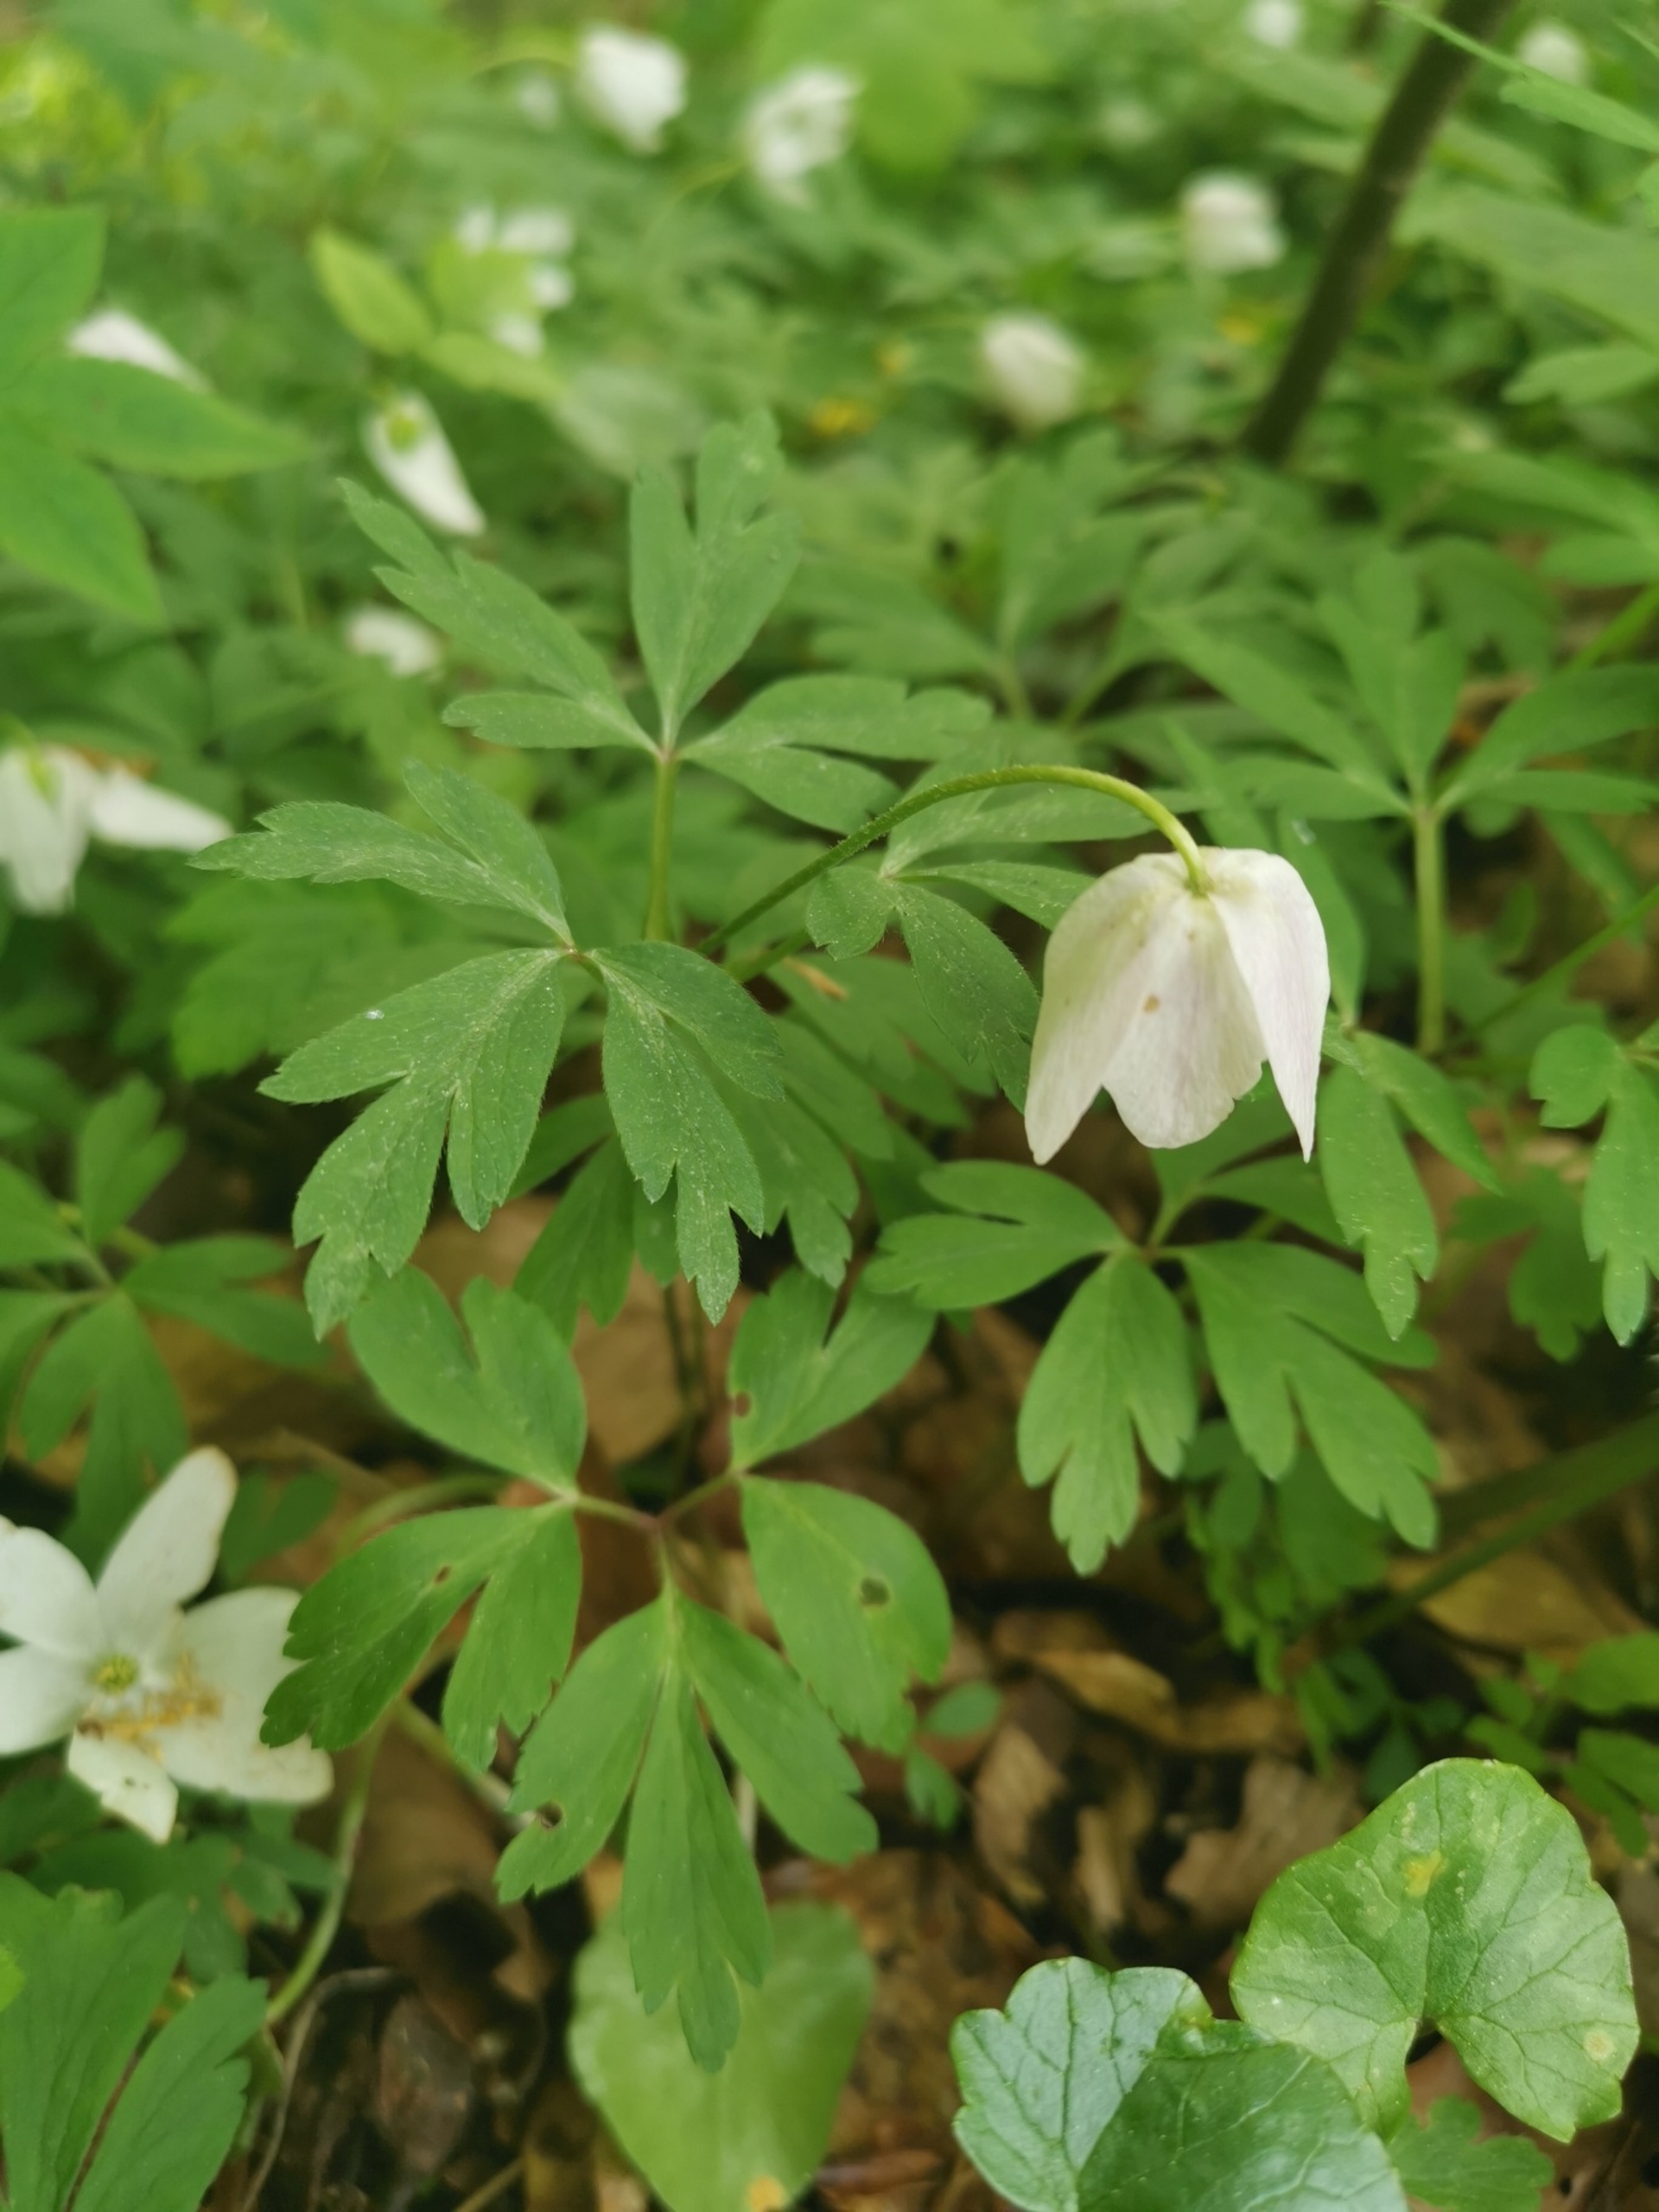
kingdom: Plantae
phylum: Tracheophyta
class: Magnoliopsida
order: Ranunculales
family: Ranunculaceae
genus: Anemone
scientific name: Anemone nemorosa
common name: Hvid anemone
